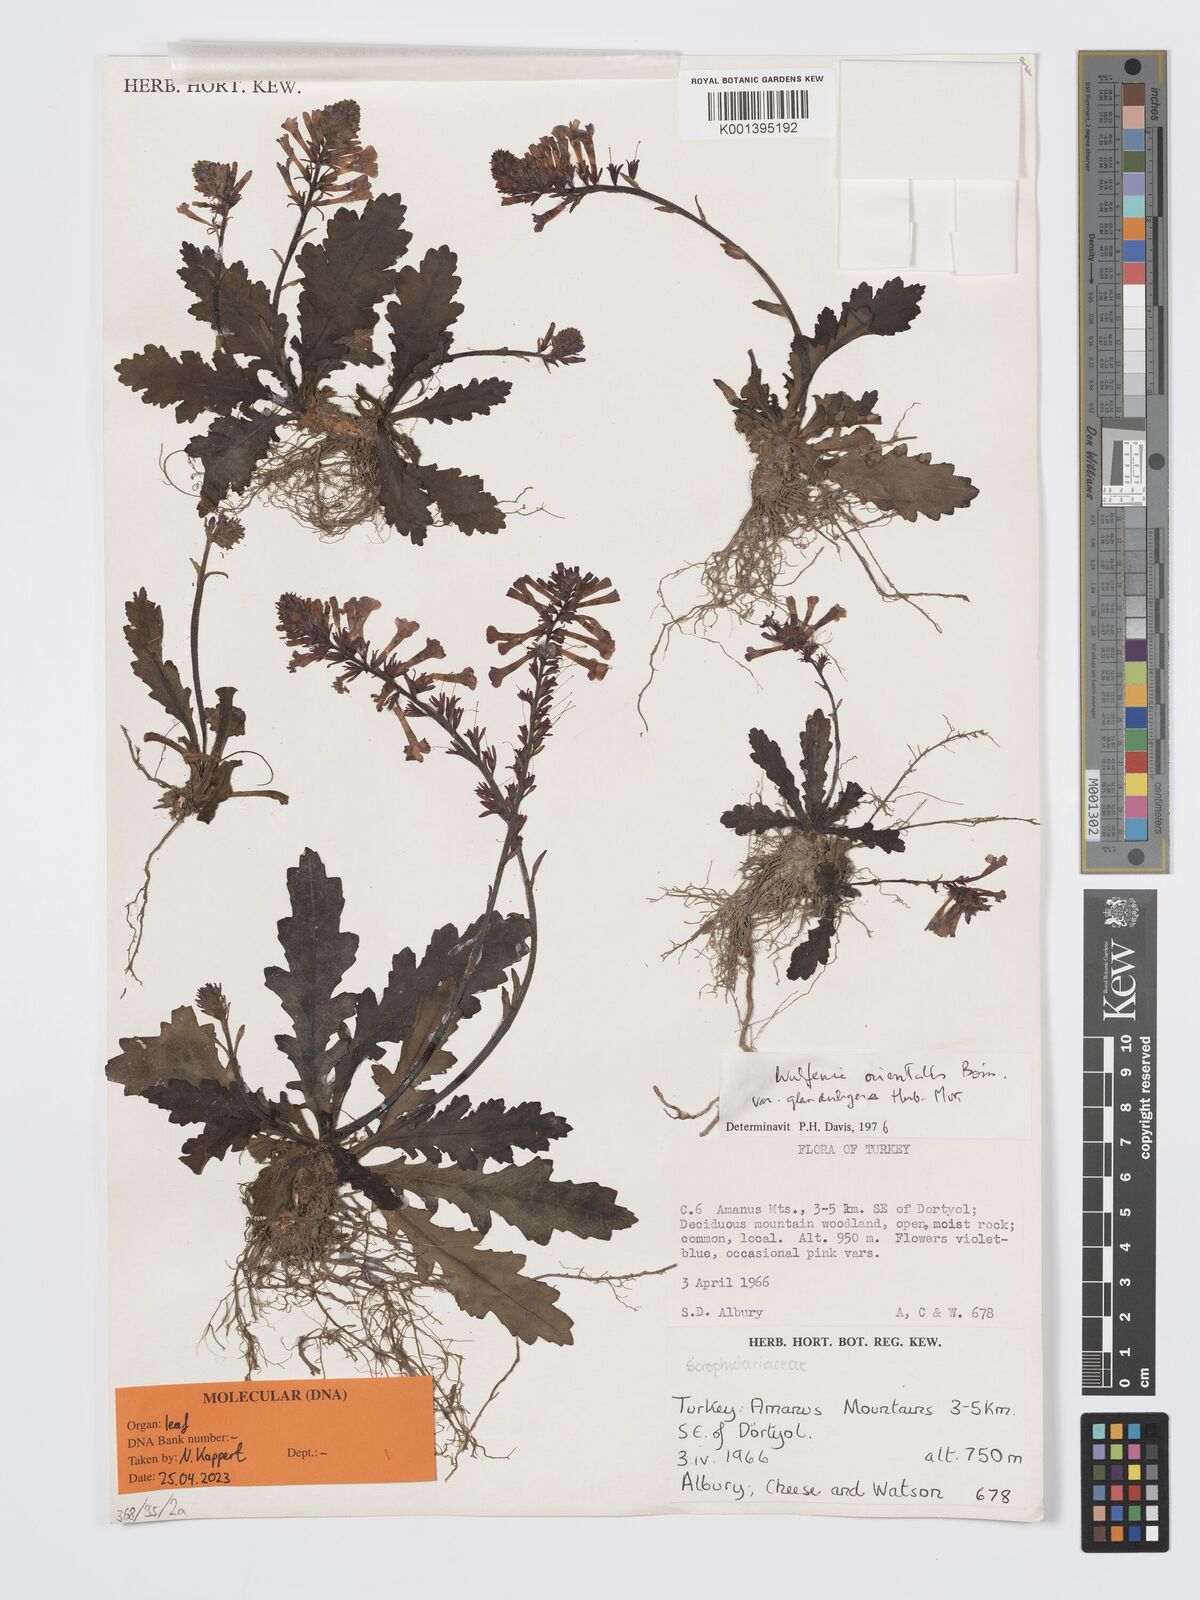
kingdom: Plantae
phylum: Tracheophyta
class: Magnoliopsida
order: Lamiales
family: Plantaginaceae
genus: Wulfenia
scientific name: Wulfenia glanduligera
